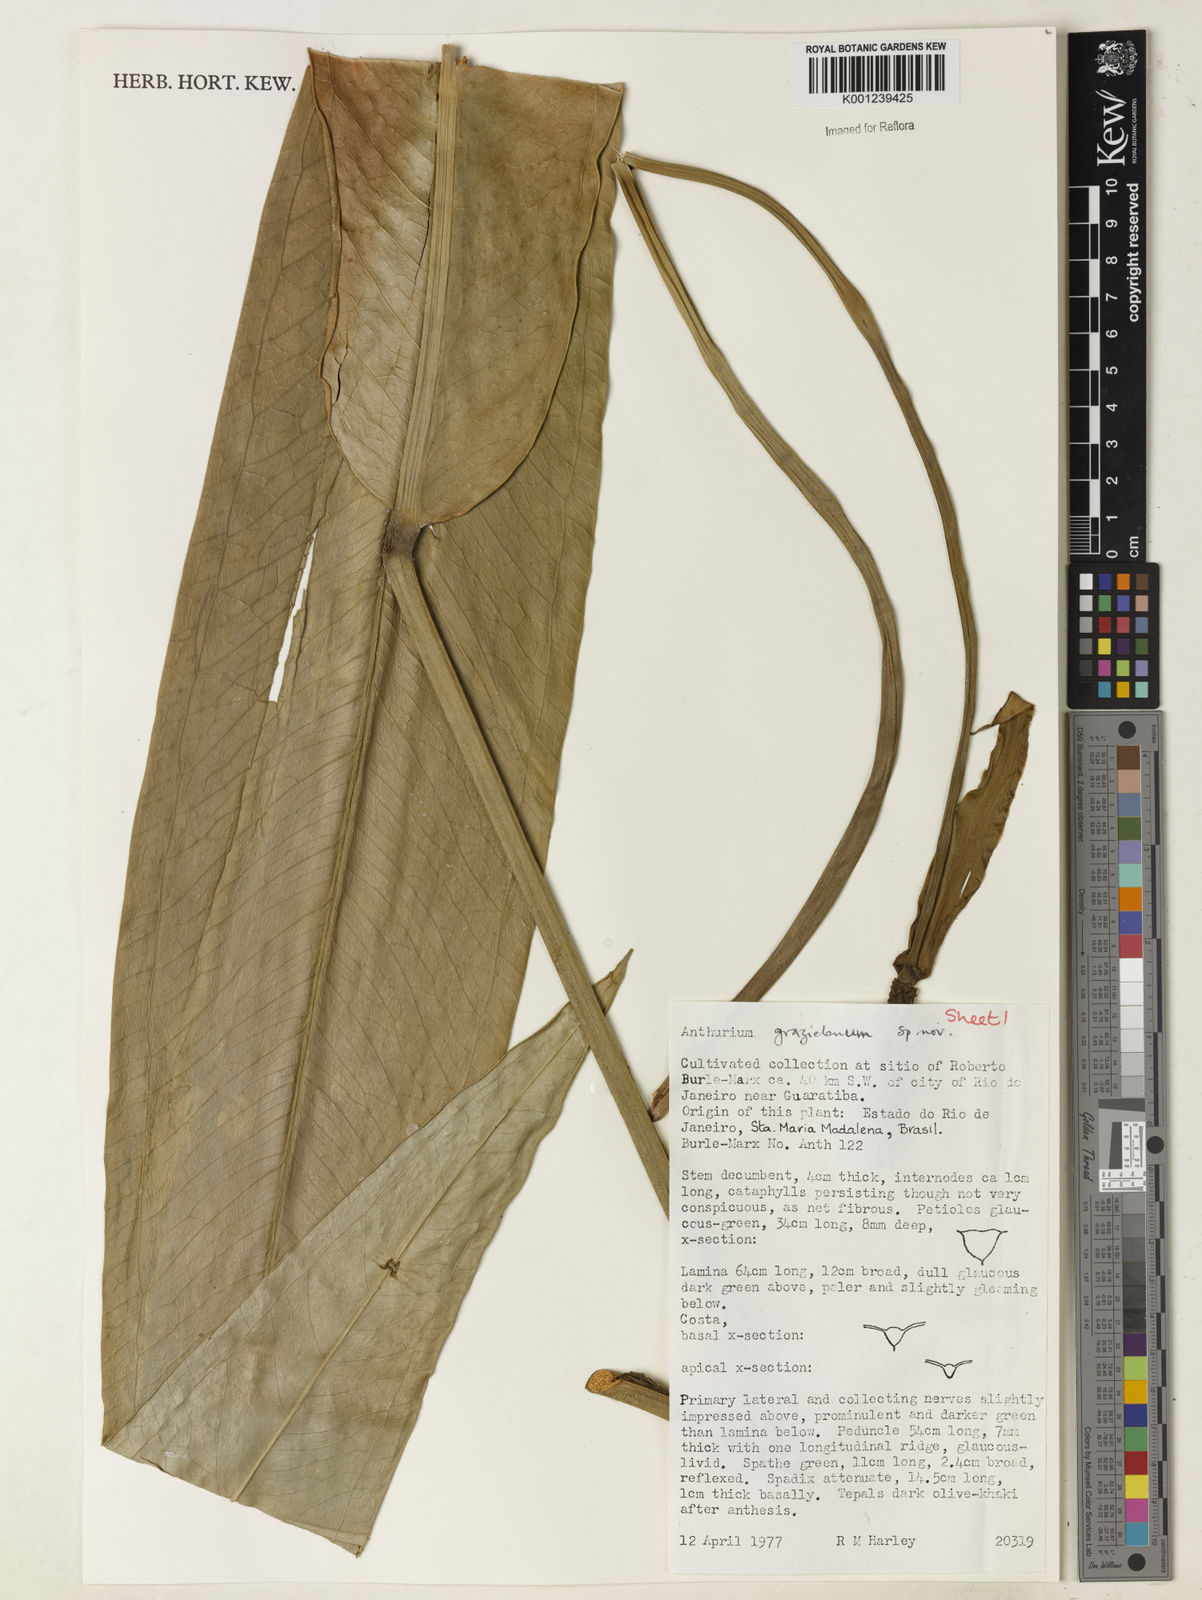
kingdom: Plantae
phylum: Tracheophyta
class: Liliopsida
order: Alismatales
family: Araceae
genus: Anthurium
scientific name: Anthurium
